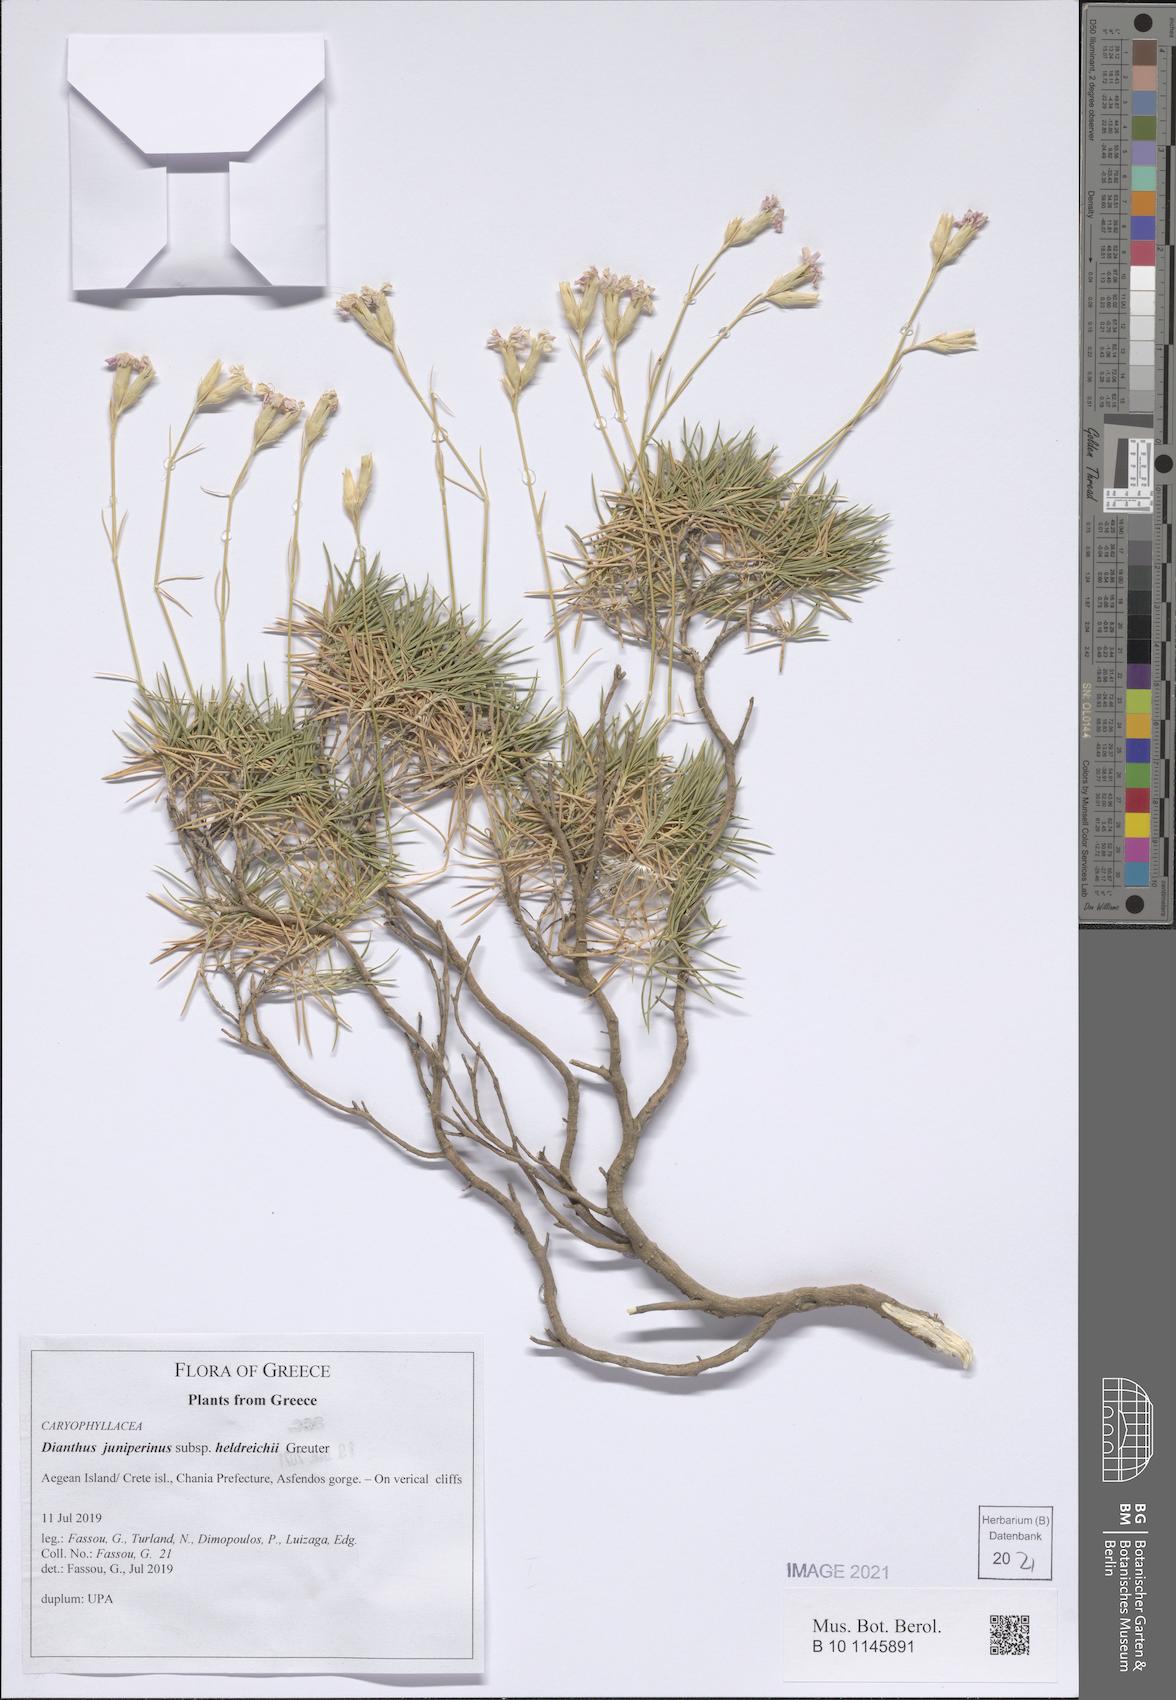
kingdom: Plantae
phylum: Tracheophyta
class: Magnoliopsida
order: Caryophyllales
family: Caryophyllaceae
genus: Dianthus
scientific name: Dianthus juniperinus
